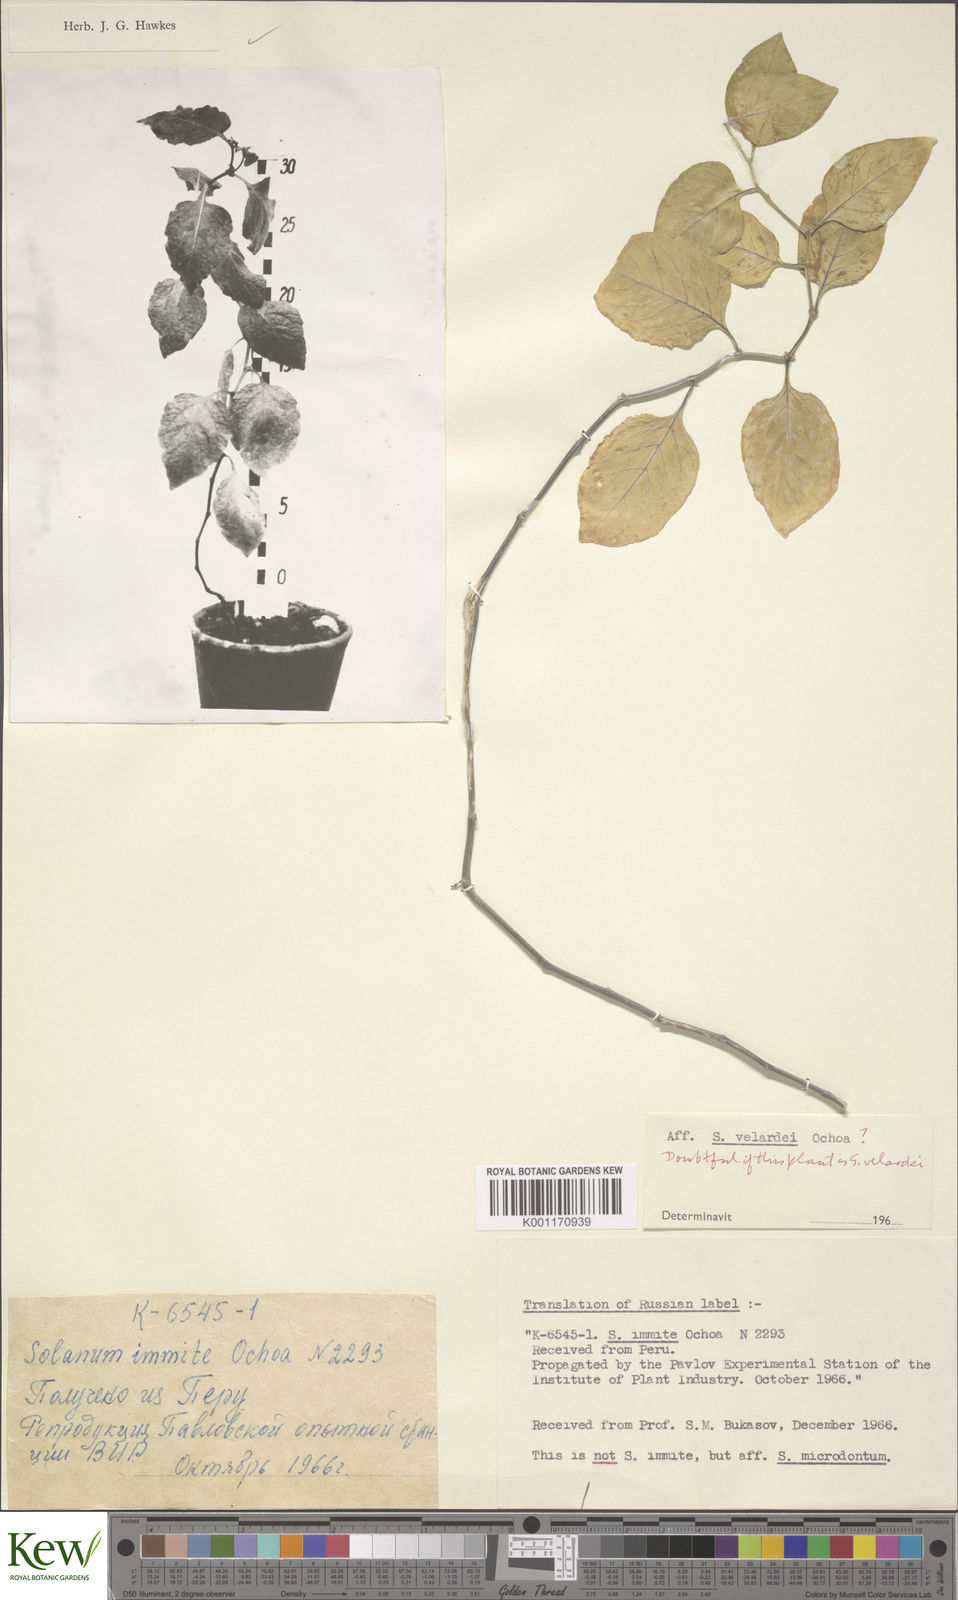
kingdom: Plantae
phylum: Tracheophyta
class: Magnoliopsida
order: Solanales
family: Solanaceae
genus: Solanum
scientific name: Solanum velardei
